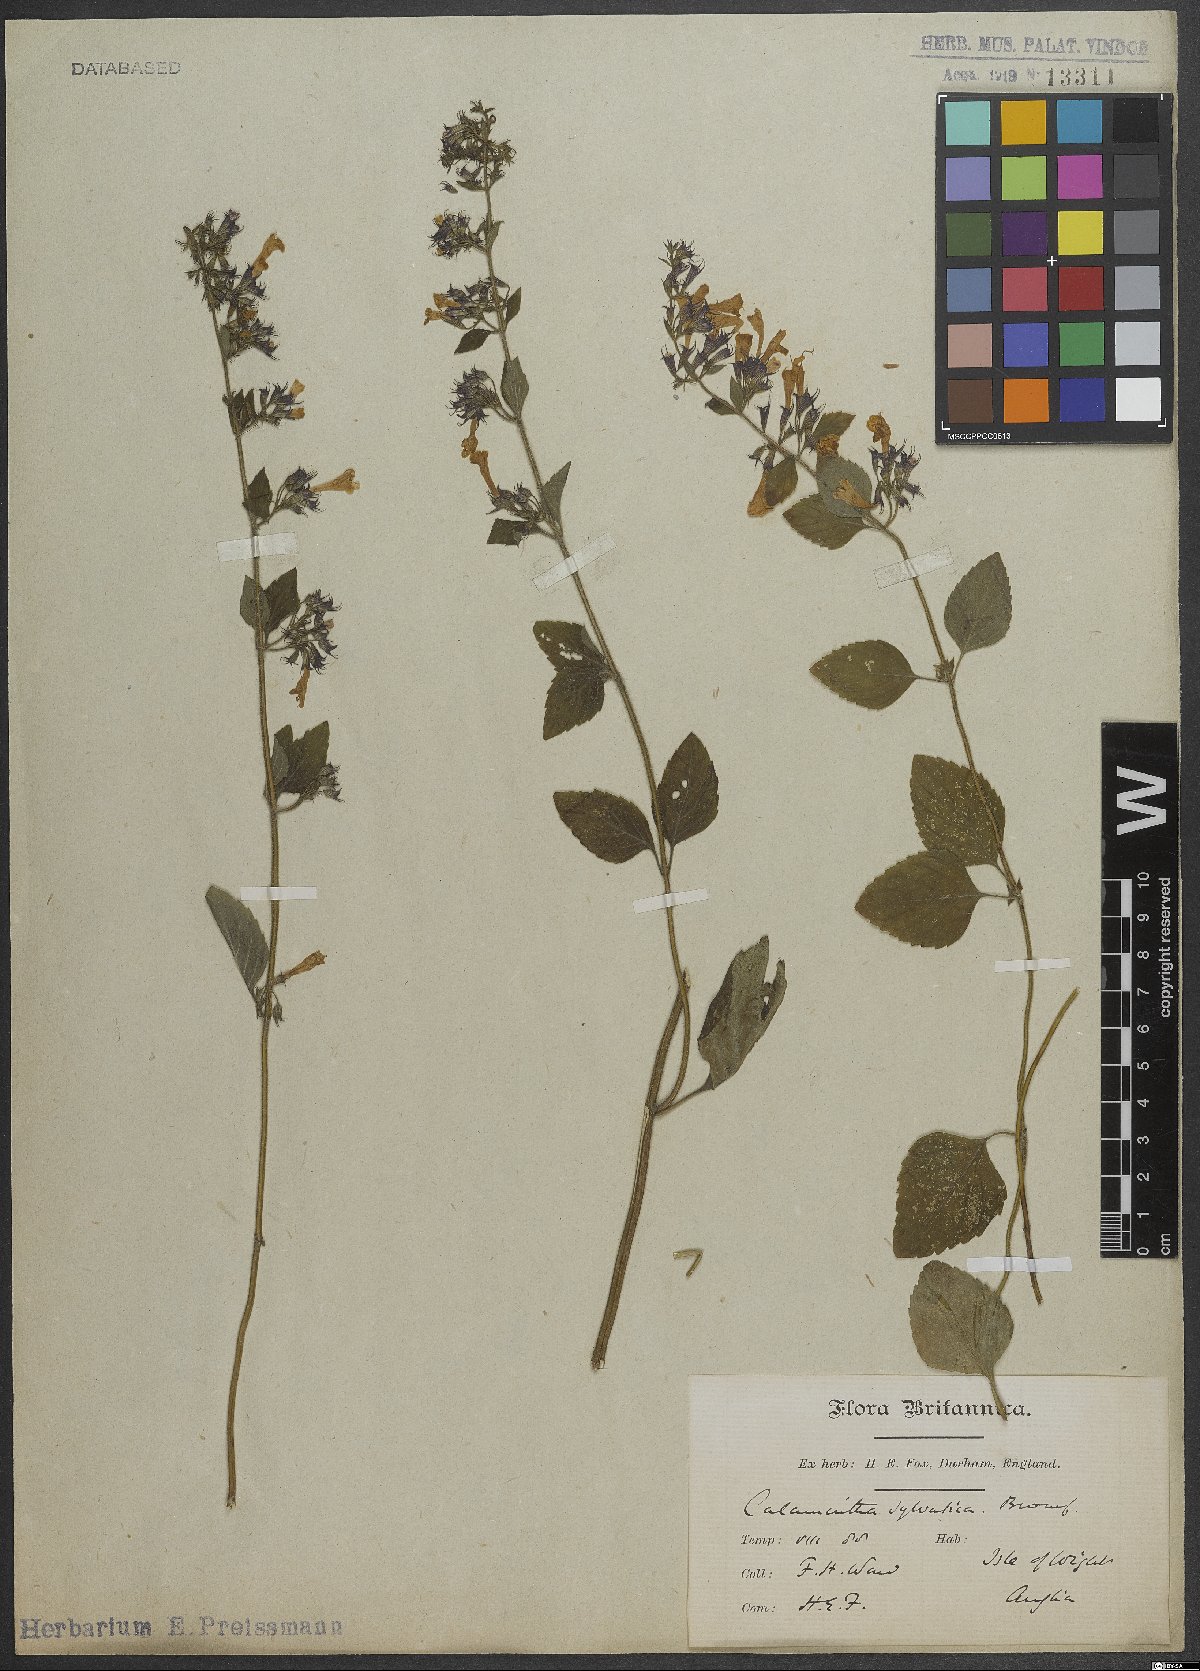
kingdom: Plantae
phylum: Tracheophyta
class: Magnoliopsida
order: Lamiales
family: Lamiaceae
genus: Clinopodium
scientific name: Clinopodium menthifolium
